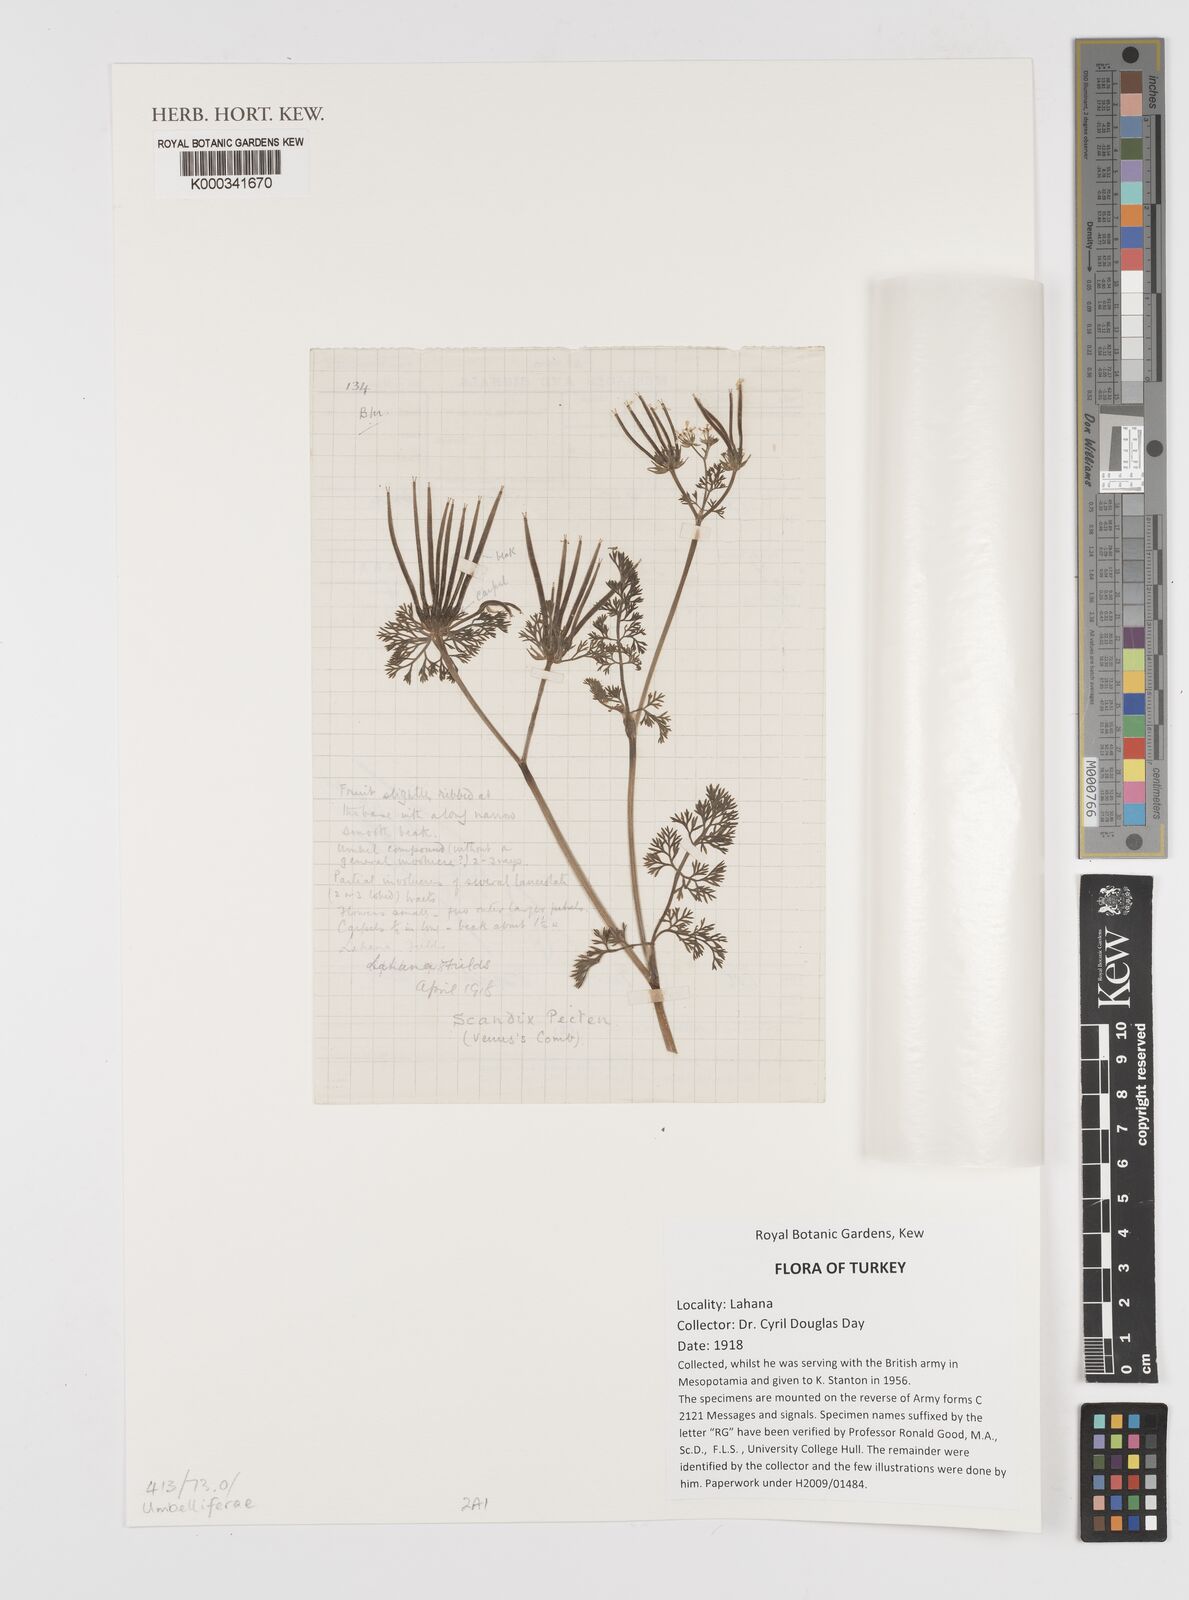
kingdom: Plantae
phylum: Tracheophyta
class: Magnoliopsida
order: Apiales
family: Apiaceae
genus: Scandix
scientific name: Scandix pecten-veneris
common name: Shepherd's-needle
